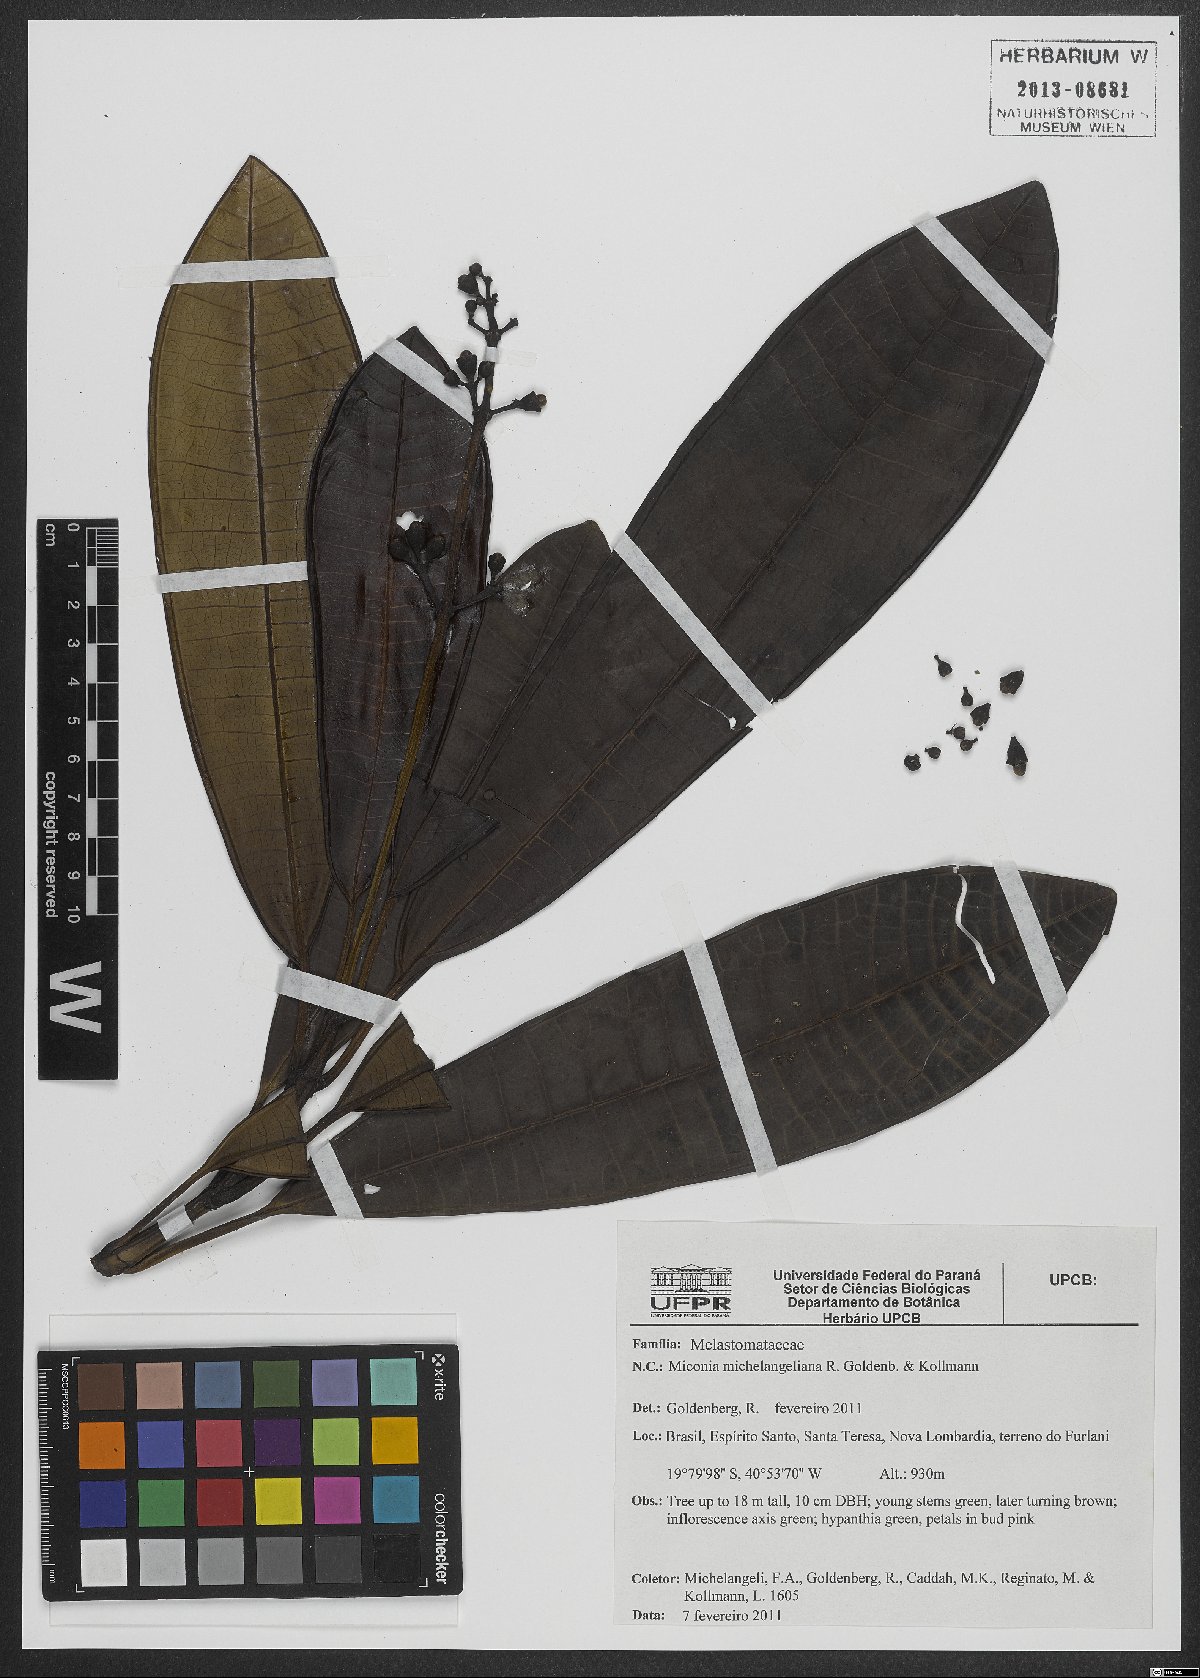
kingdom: Plantae
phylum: Tracheophyta
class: Magnoliopsida
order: Myrtales
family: Melastomataceae
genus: Miconia
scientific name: Miconia michelangeliana
